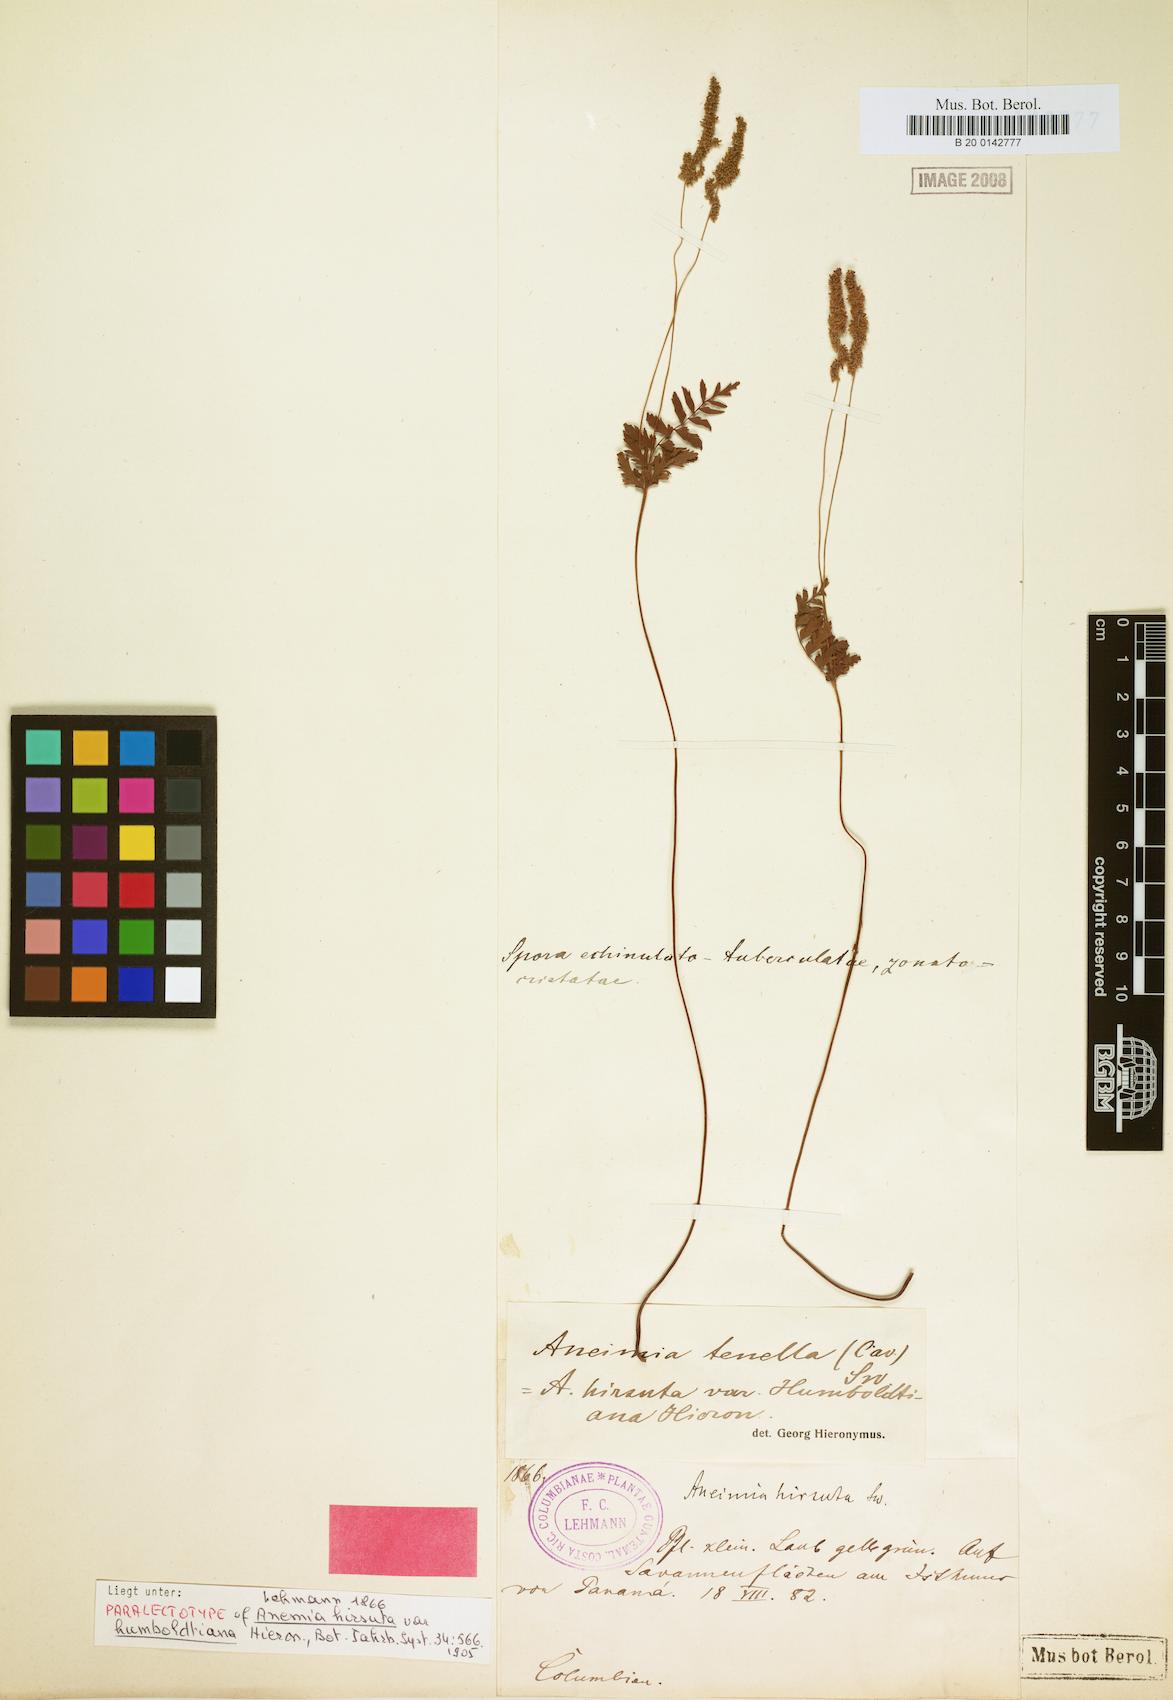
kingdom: Plantae
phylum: Tracheophyta
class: Polypodiopsida
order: Schizaeales
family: Anemiaceae
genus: Anemia
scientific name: Anemia hirsuta
